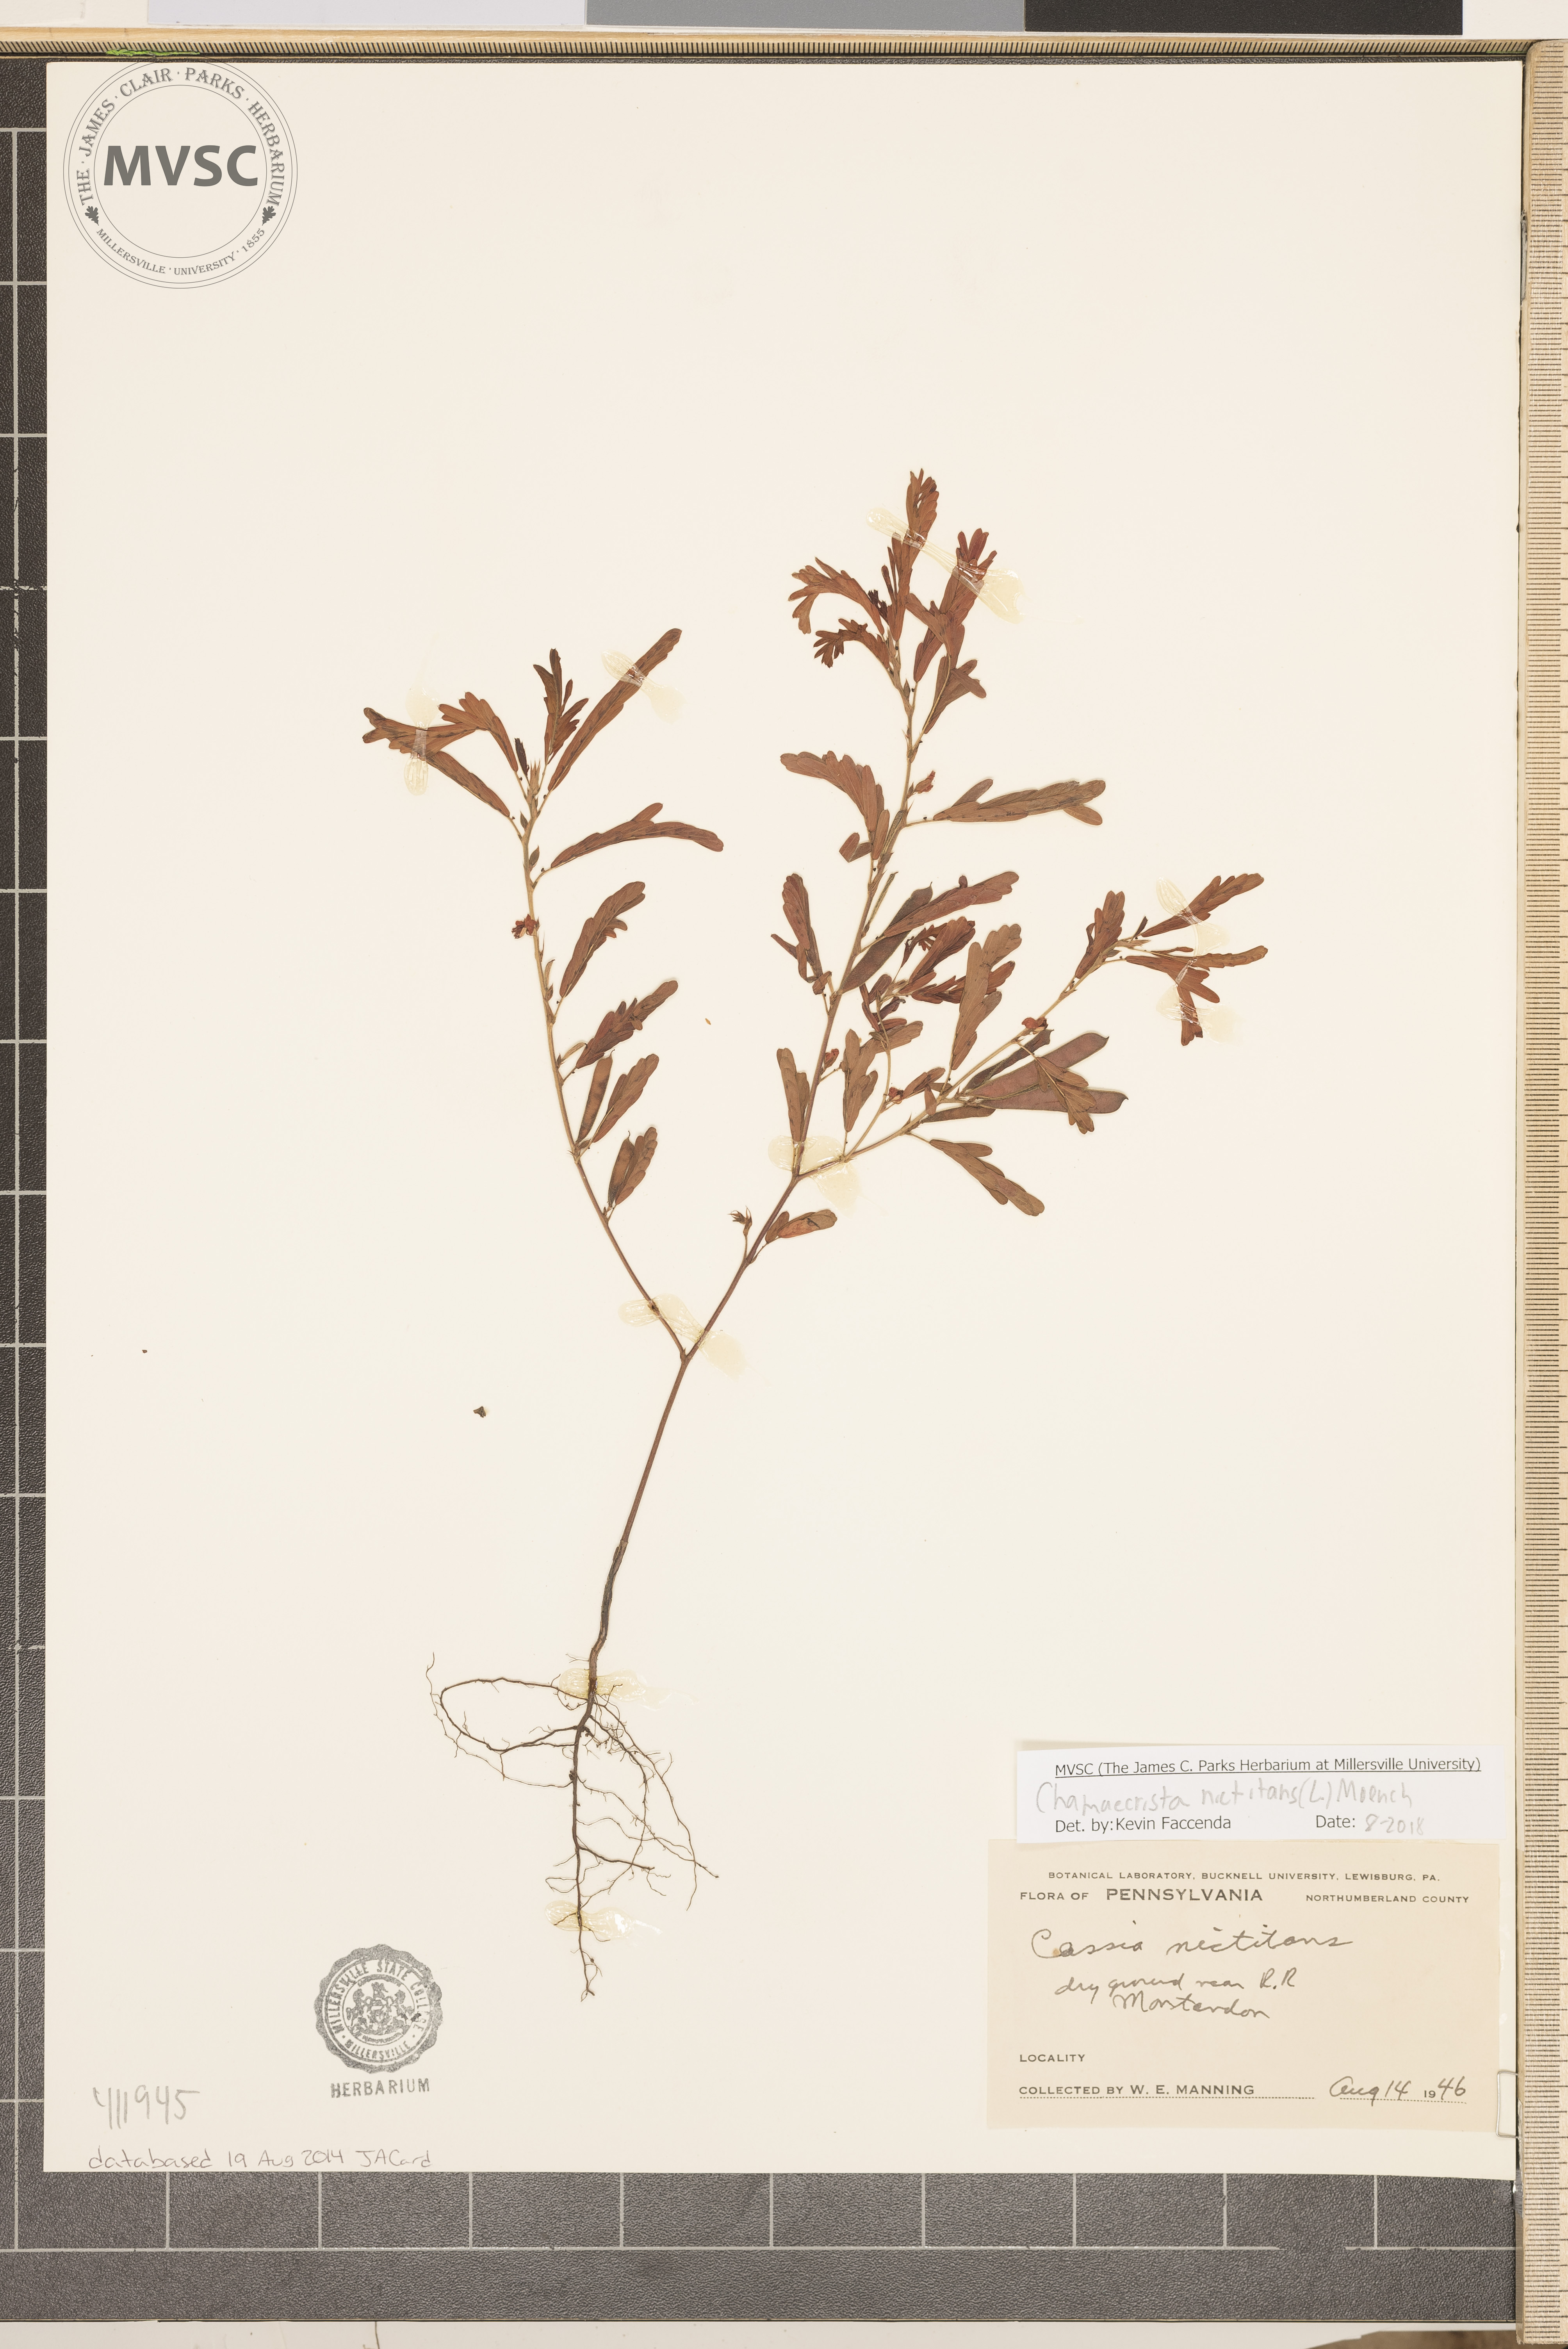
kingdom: Plantae
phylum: Tracheophyta
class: Magnoliopsida
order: Fabales
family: Fabaceae
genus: Chamaecrista
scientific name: Chamaecrista nictitans
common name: Sensitive cassia
